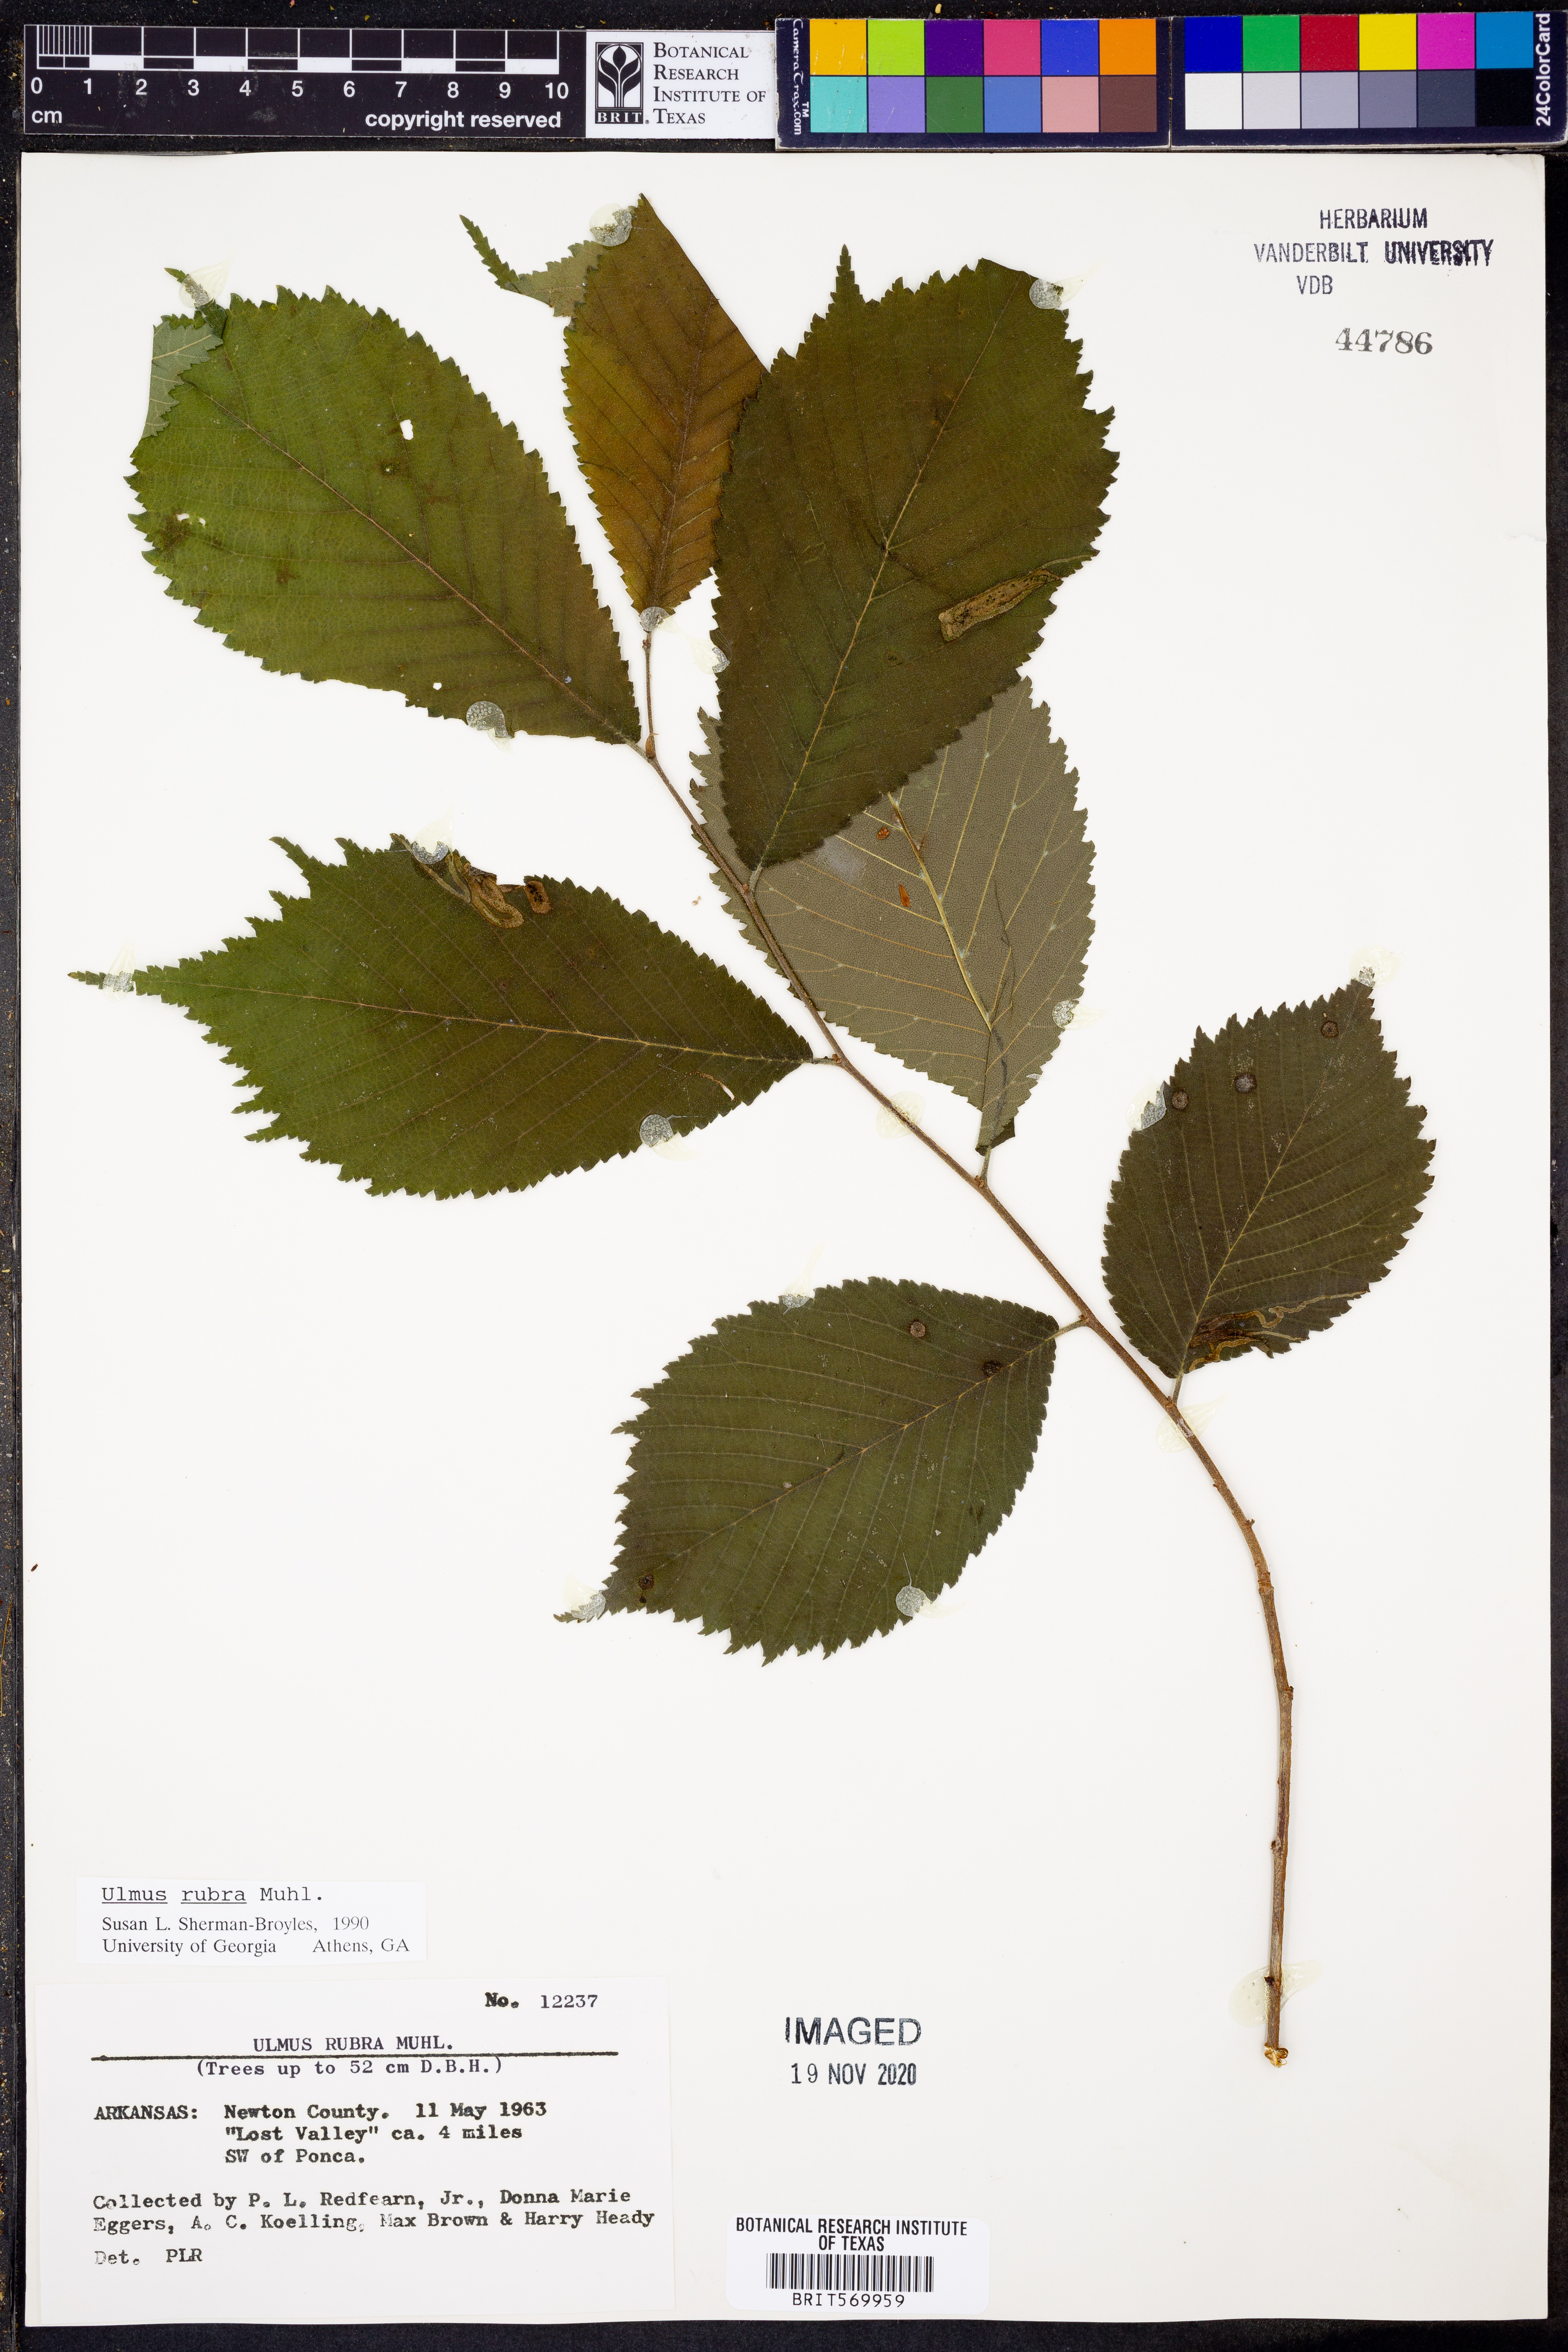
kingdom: Plantae
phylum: Tracheophyta
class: Magnoliopsida
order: Rosales
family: Ulmaceae
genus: Ulmus
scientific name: Ulmus rubra
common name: Slippery elm
